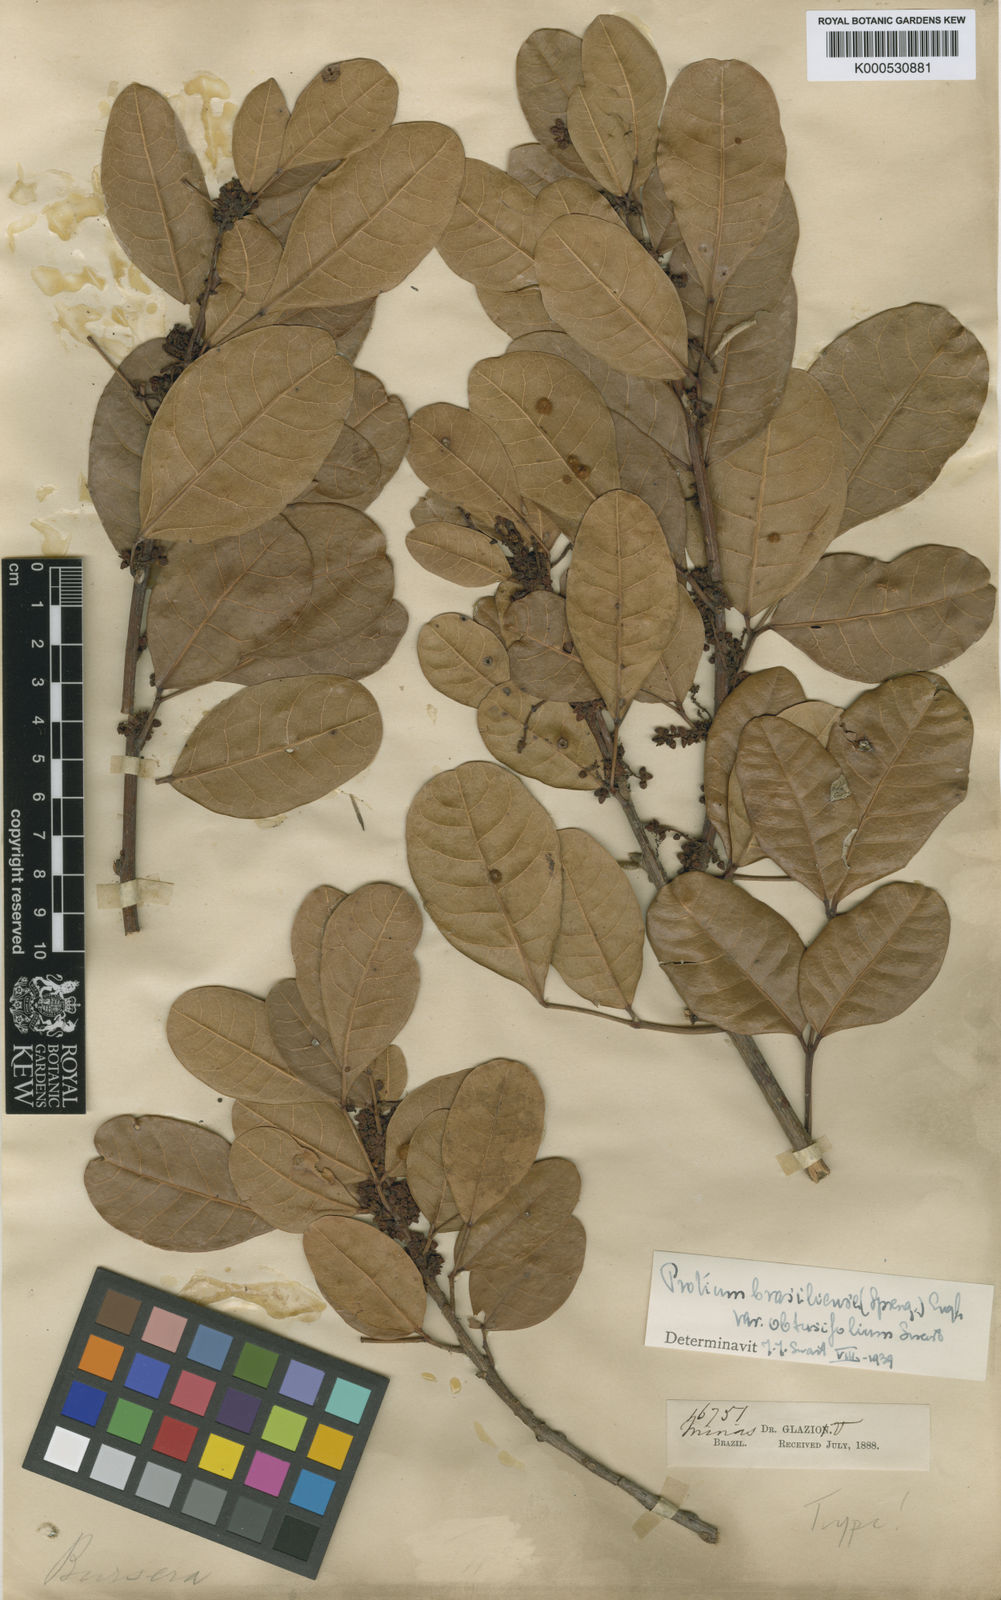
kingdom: Plantae
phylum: Tracheophyta
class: Magnoliopsida
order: Sapindales
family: Burseraceae
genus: Protium
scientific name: Protium brasiliense
